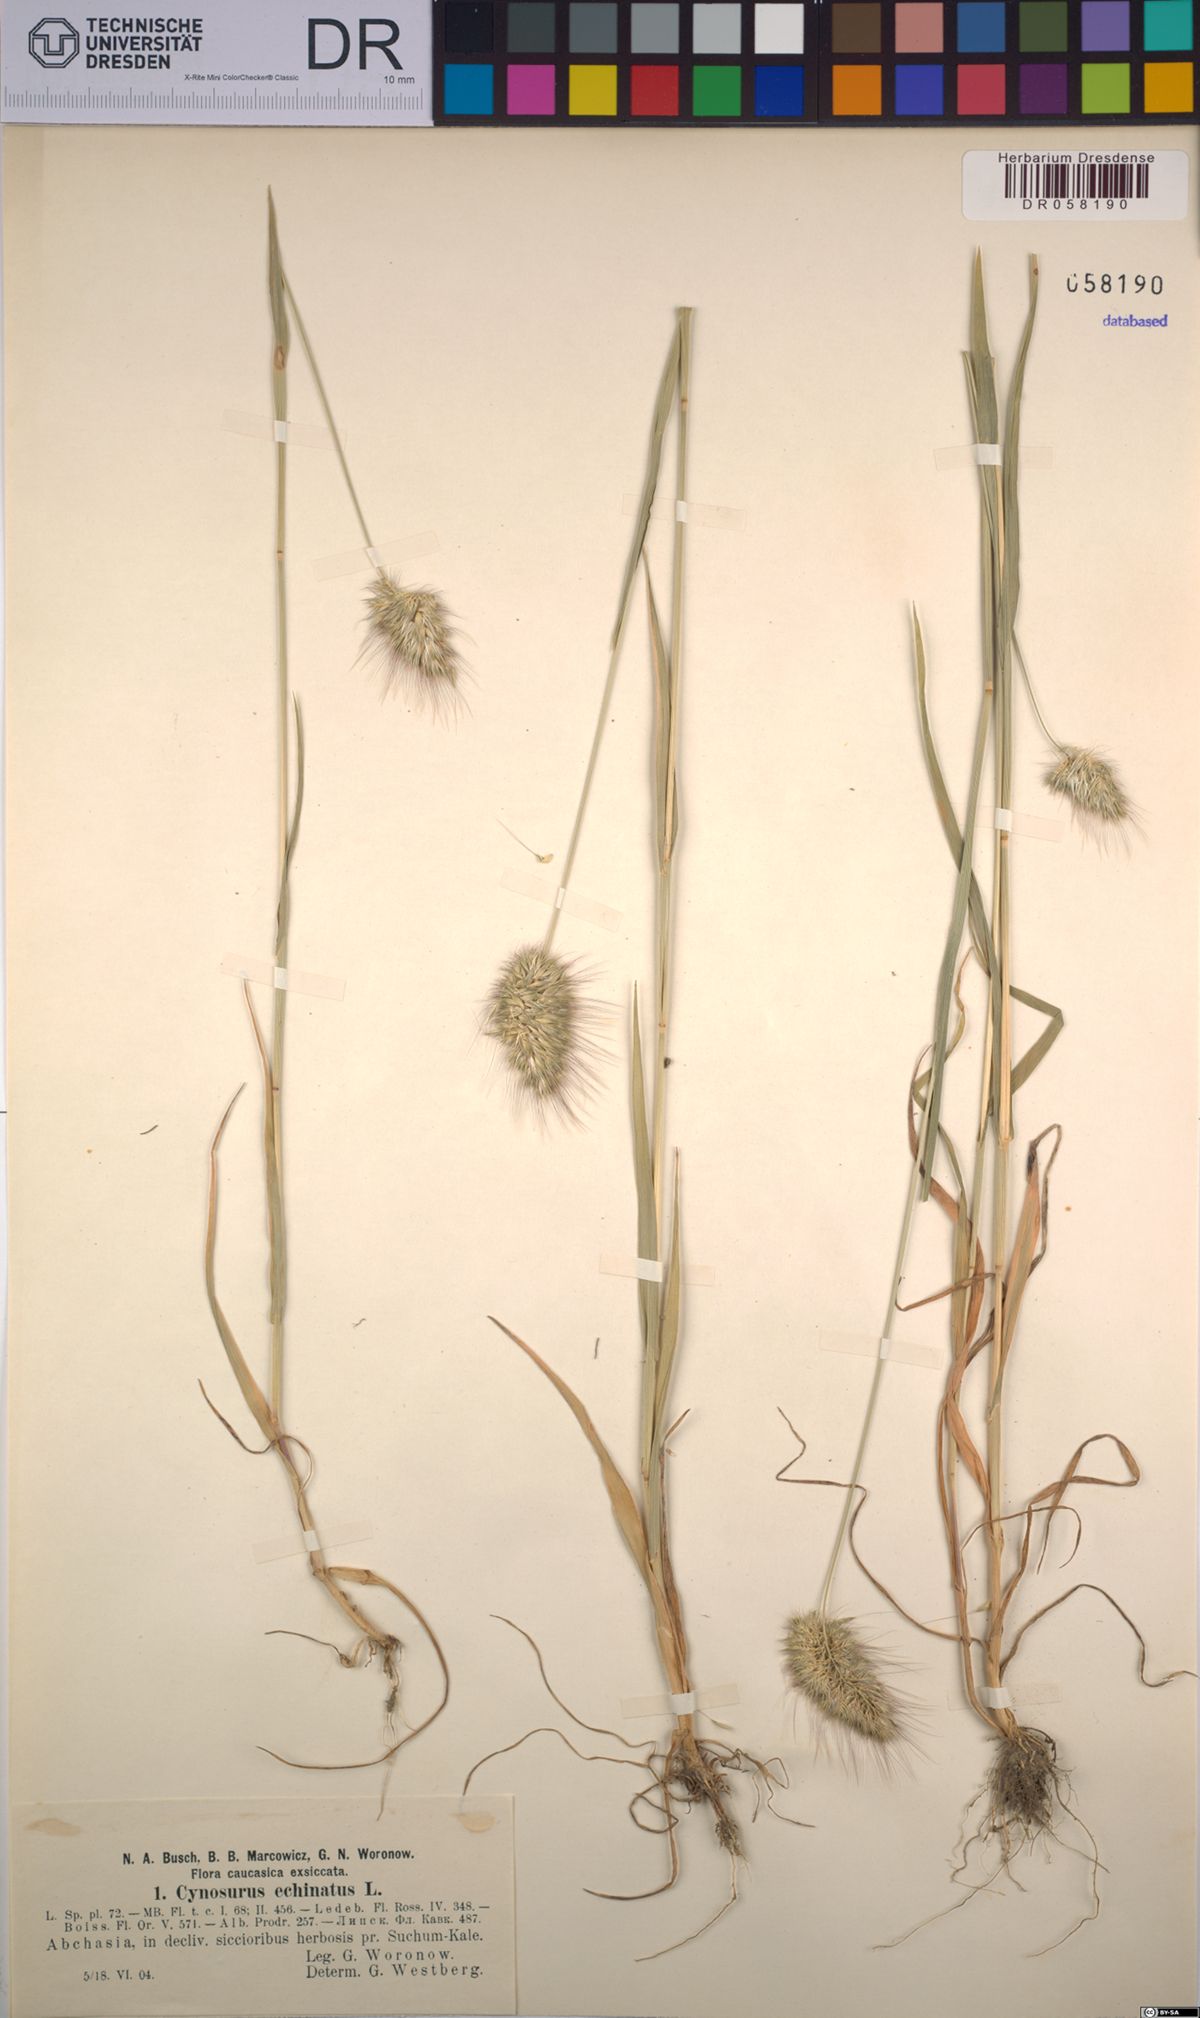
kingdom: Plantae
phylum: Tracheophyta
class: Liliopsida
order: Poales
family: Poaceae
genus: Cynosurus
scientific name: Cynosurus echinatus
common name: Rough dog's-tail
